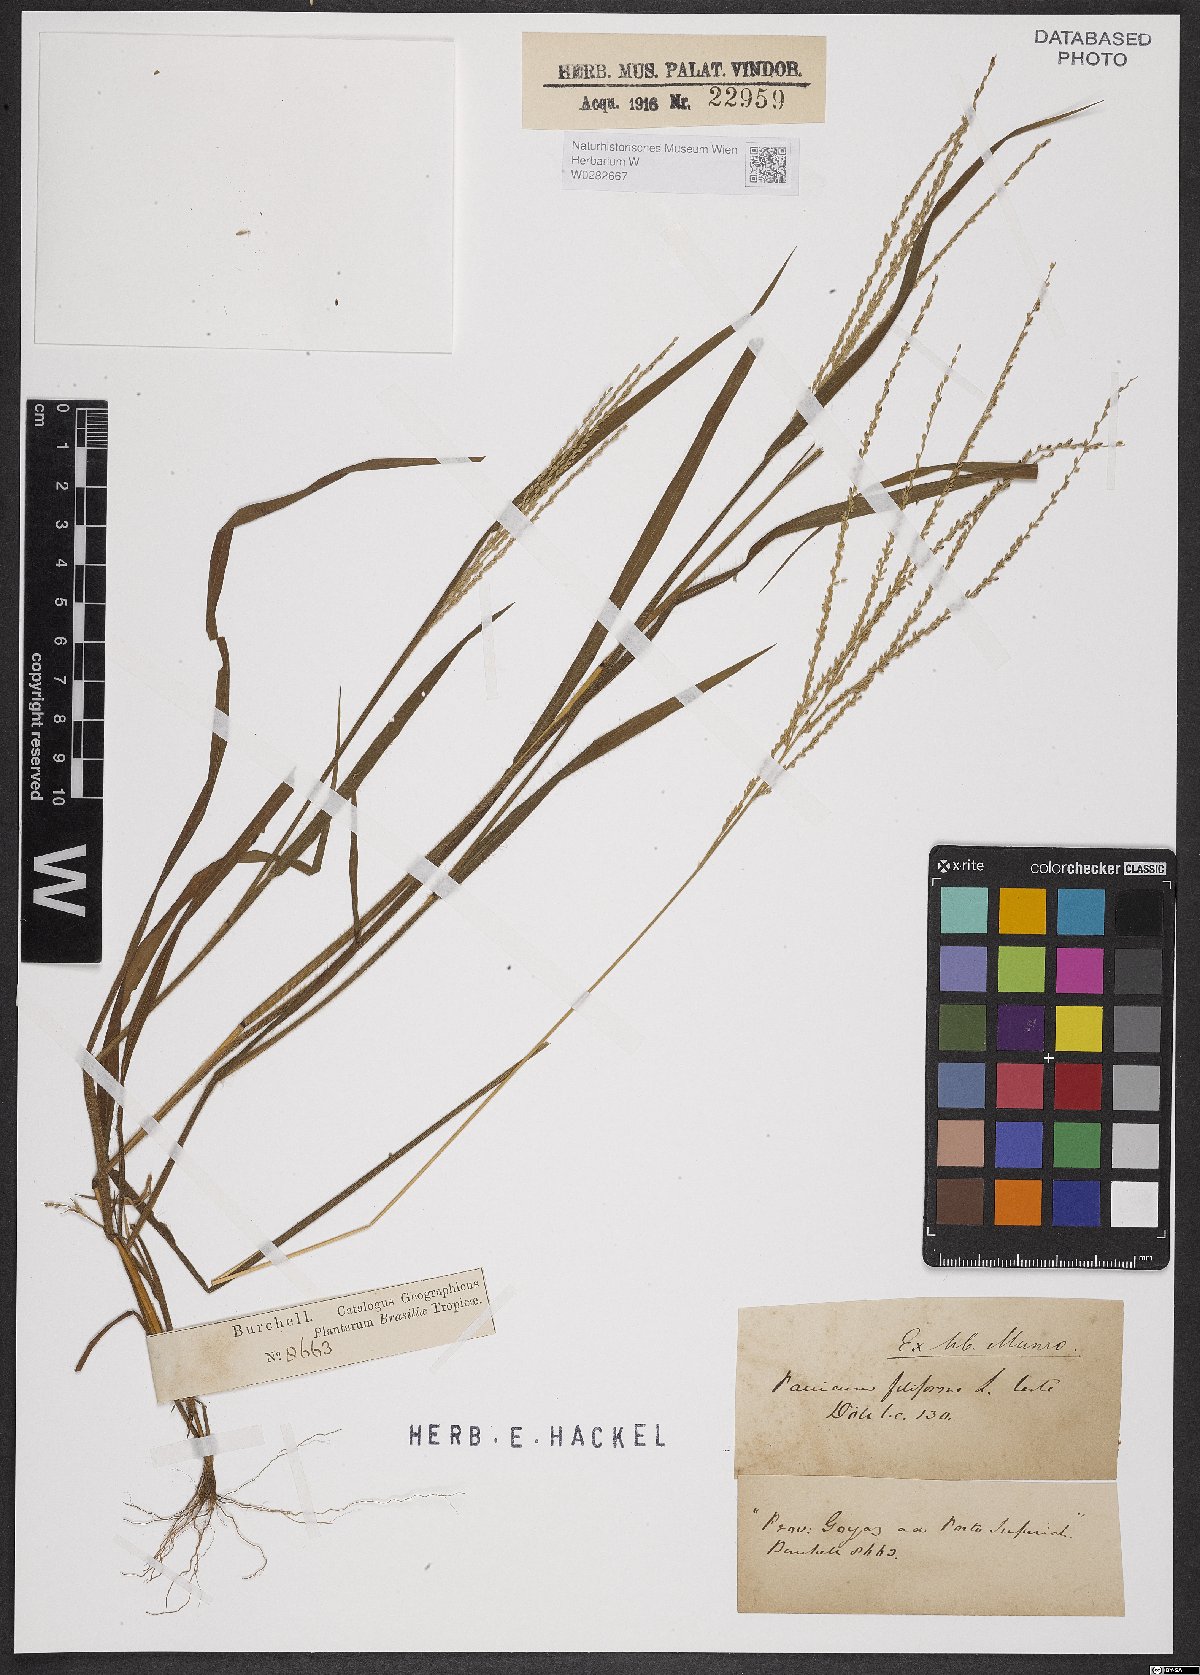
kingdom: Plantae
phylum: Tracheophyta
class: Liliopsida
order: Poales
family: Poaceae
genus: Digitaria
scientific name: Digitaria filiformis
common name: Slender crabgrass
